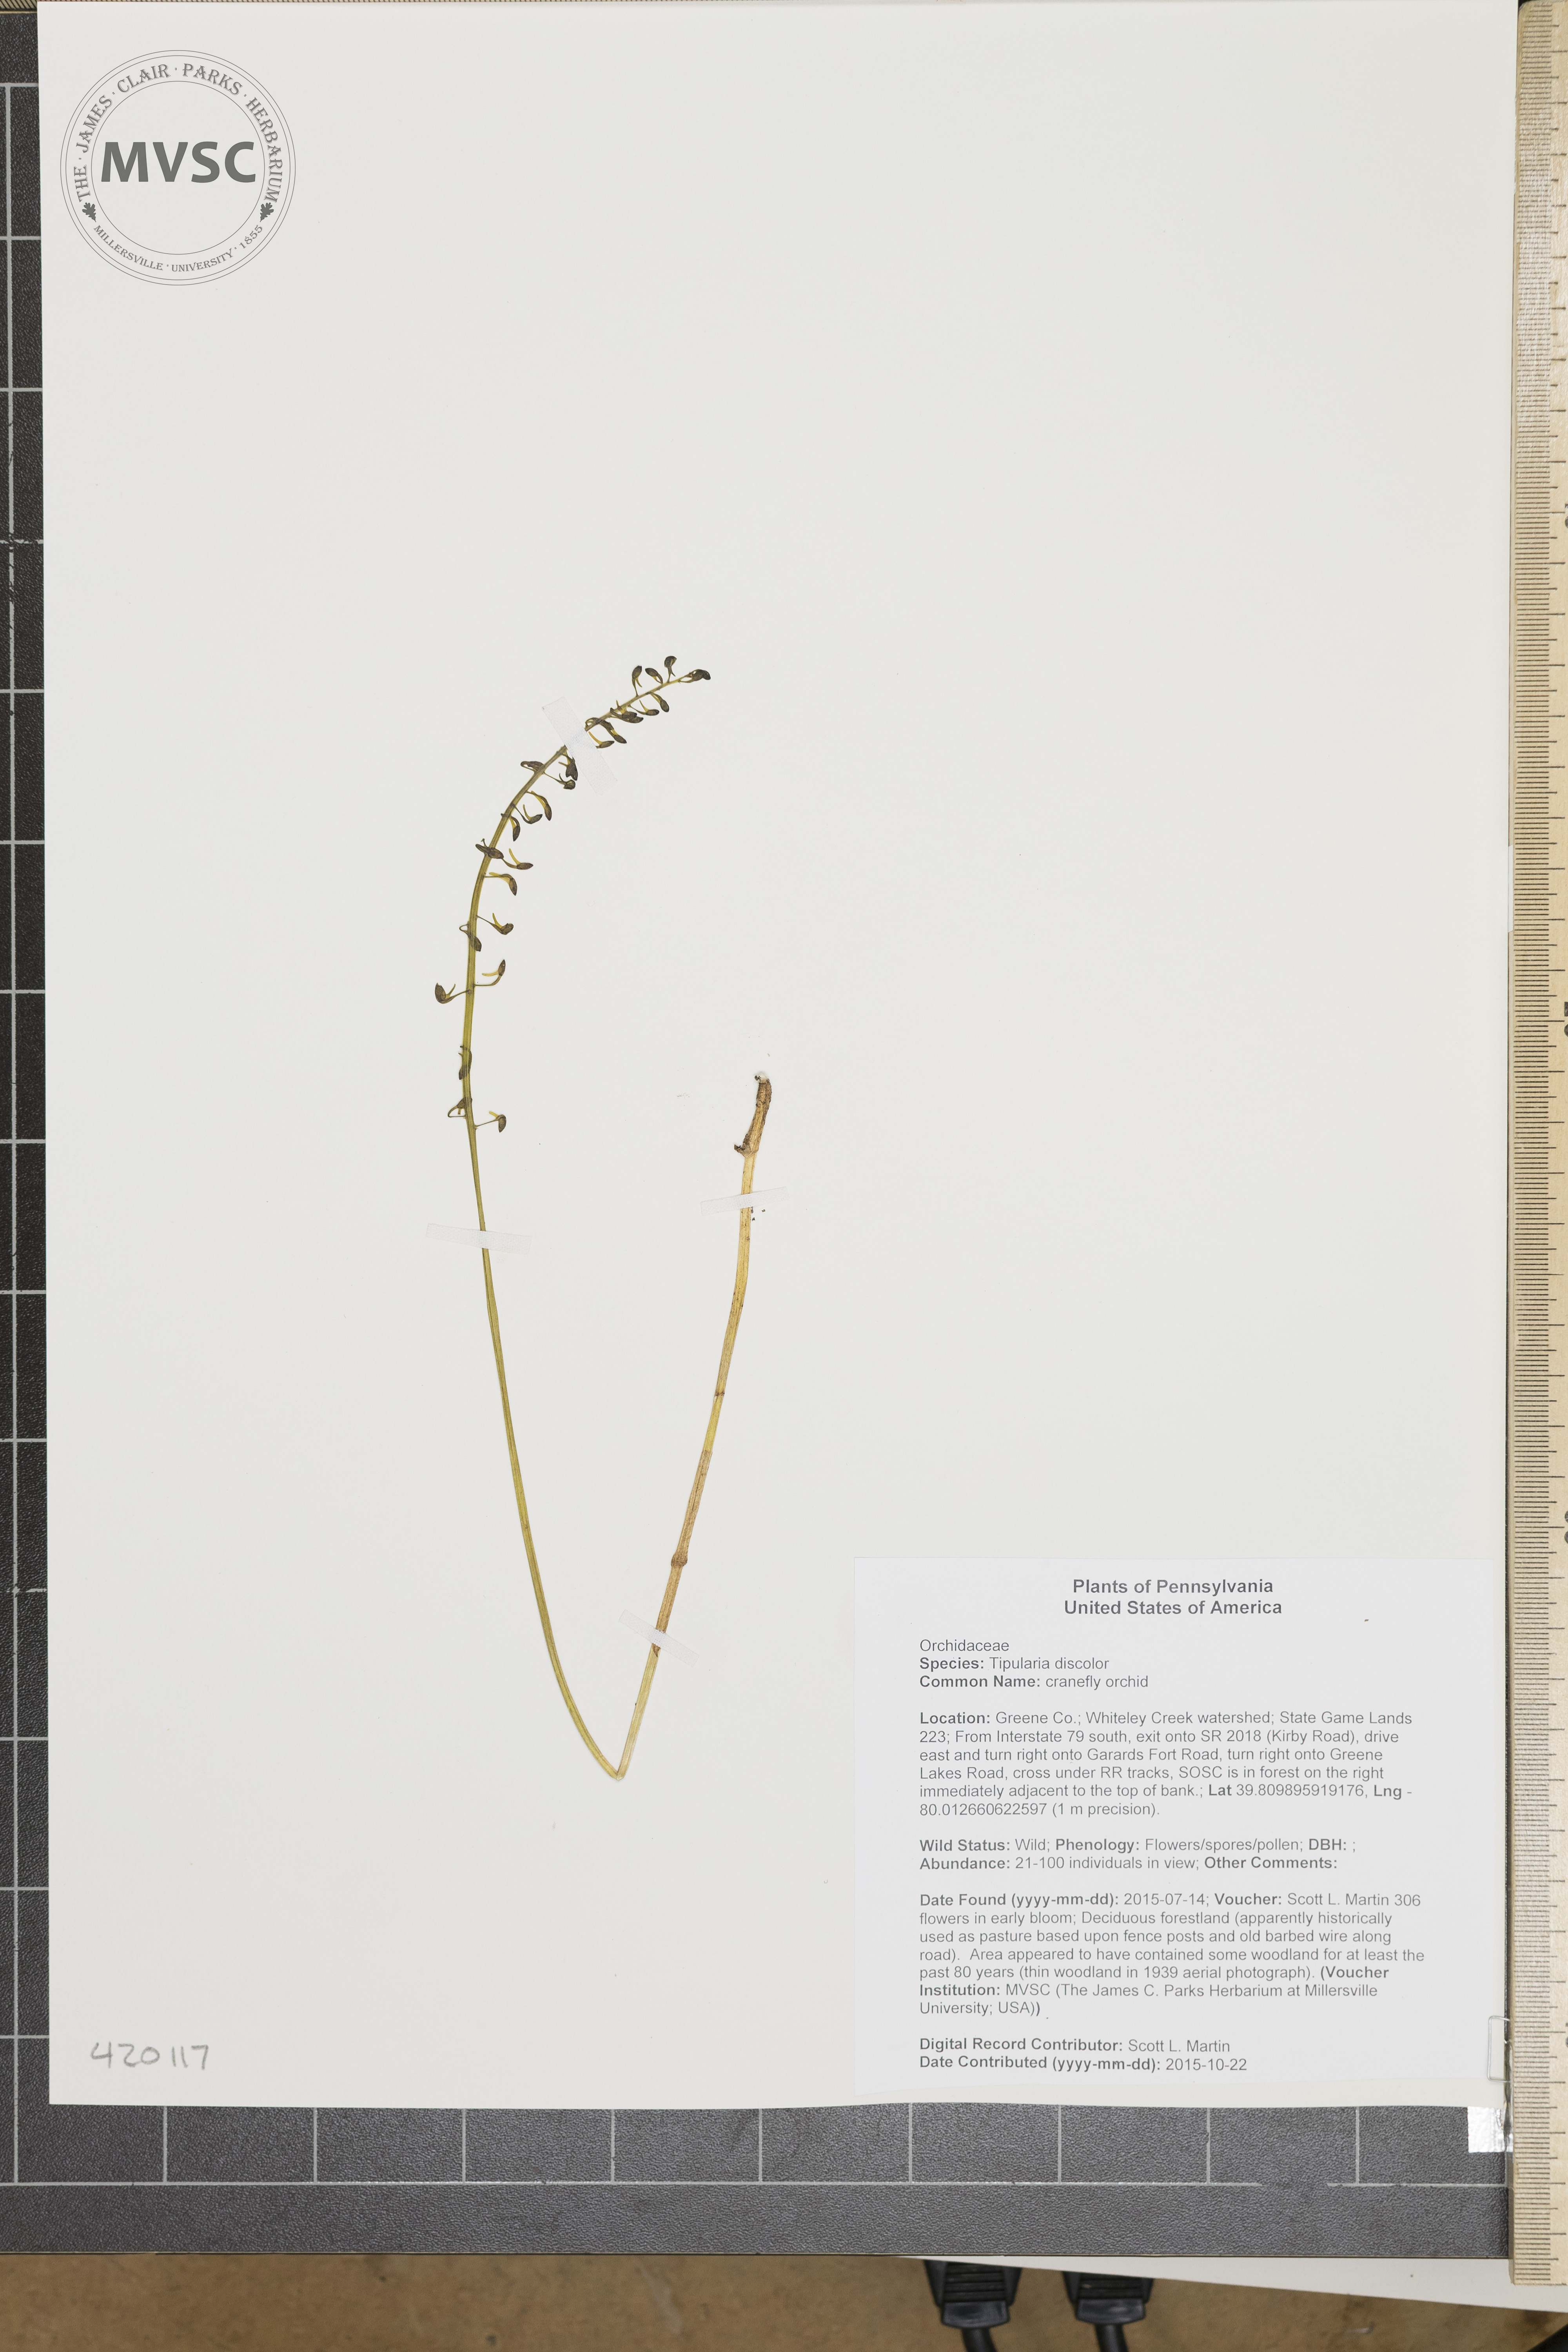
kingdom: Plantae
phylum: Tracheophyta
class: Liliopsida
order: Asparagales
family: Orchidaceae
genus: Tipularia
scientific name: Tipularia discolor
